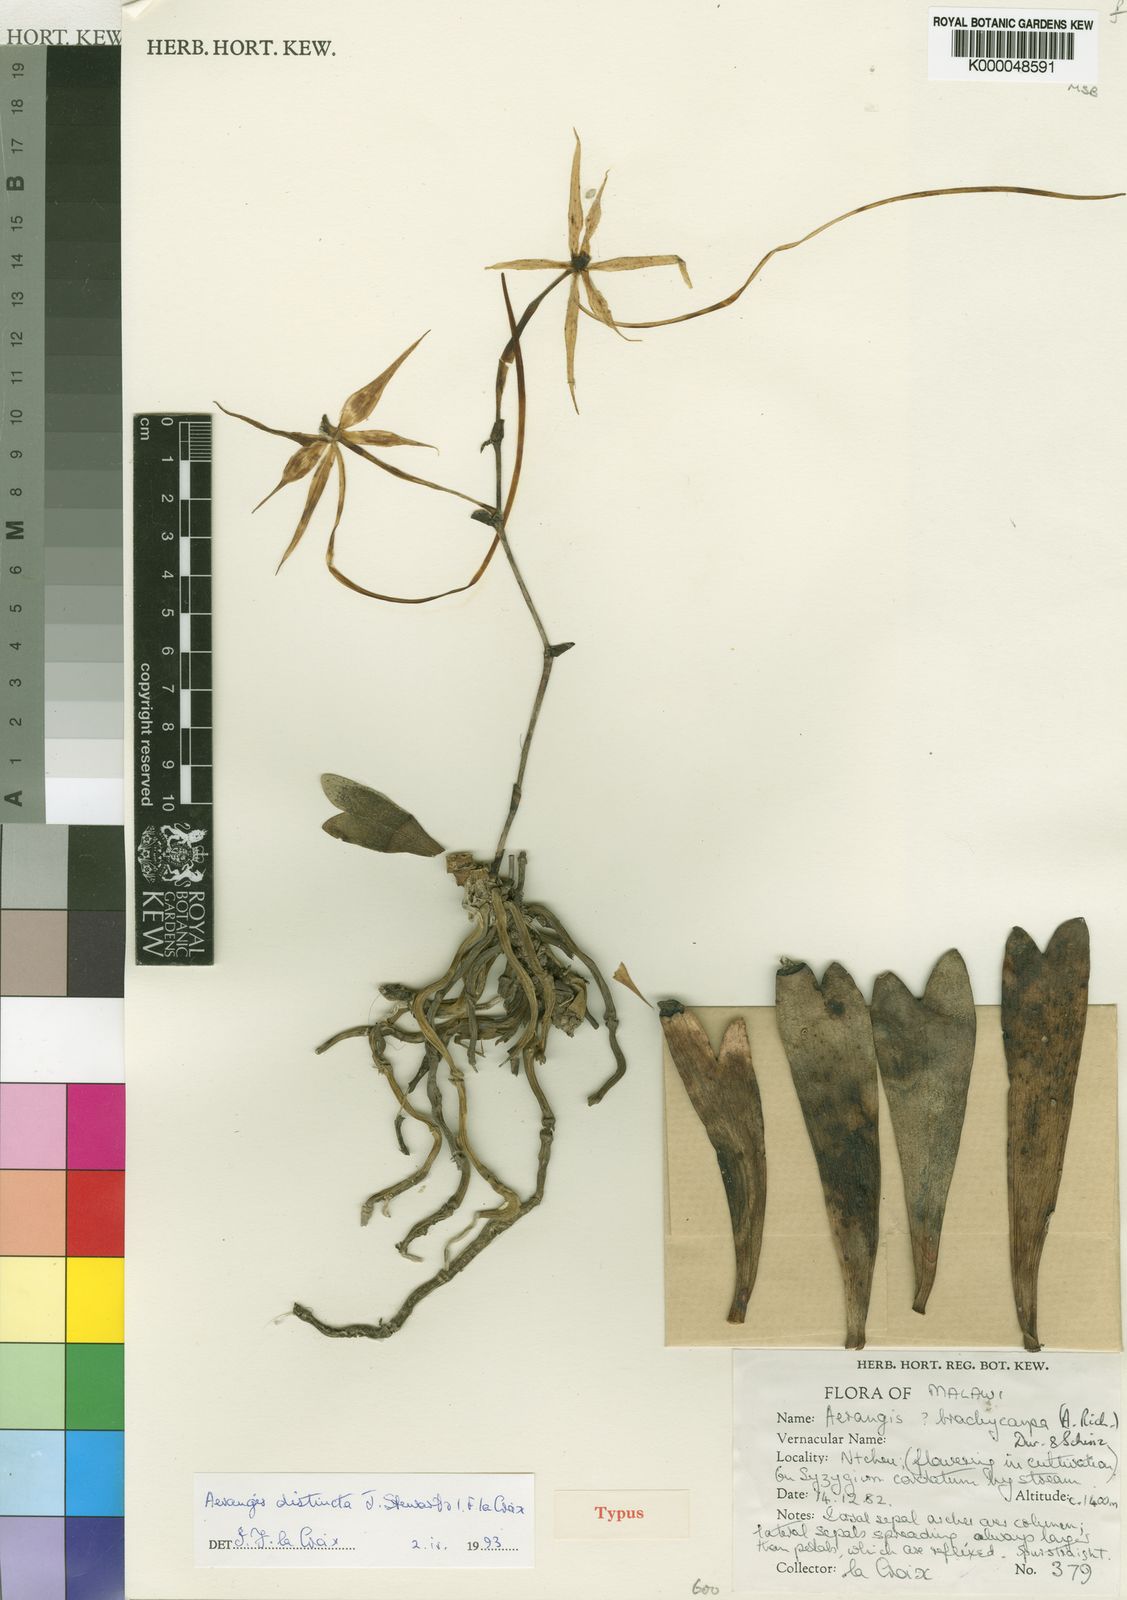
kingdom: Plantae
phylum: Tracheophyta
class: Liliopsida
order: Asparagales
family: Orchidaceae
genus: Aerangis
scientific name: Aerangis distincta
